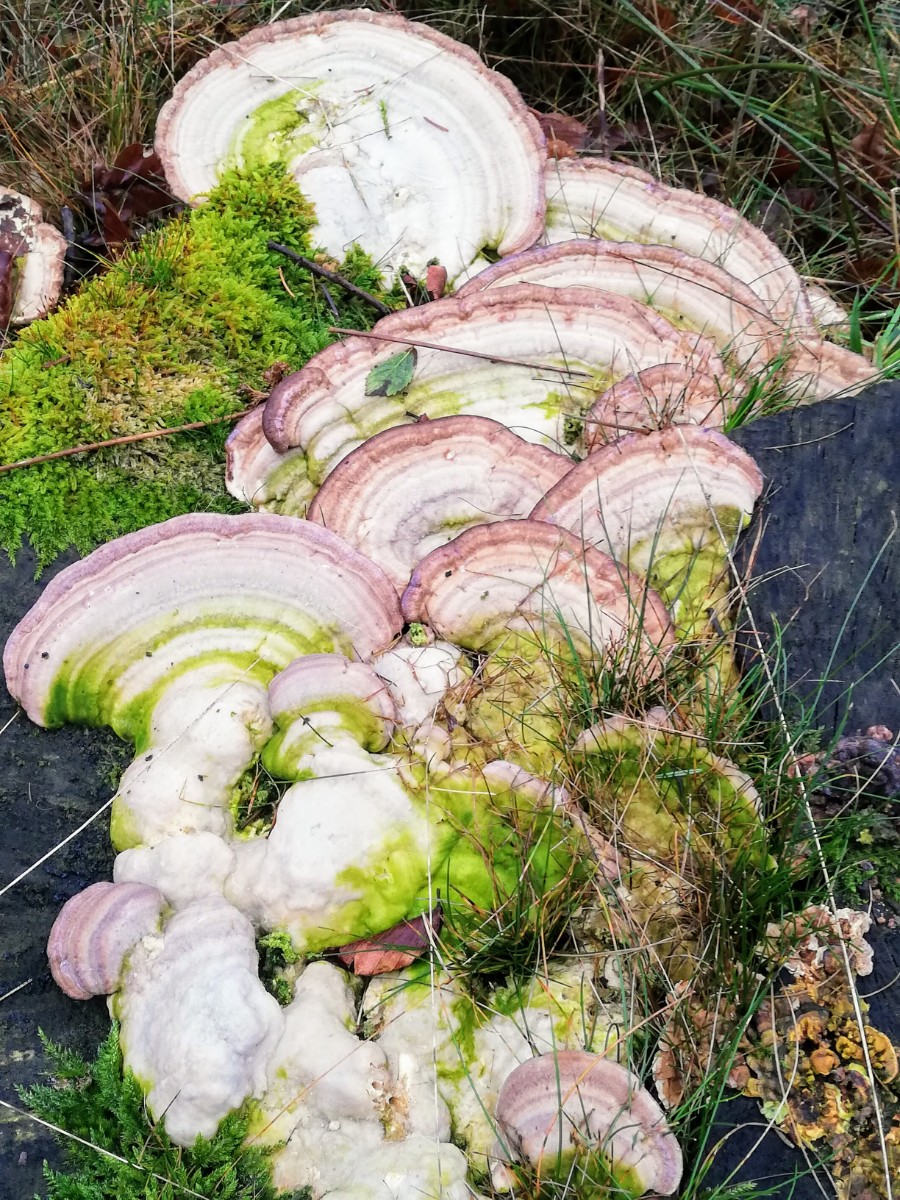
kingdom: Fungi
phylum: Basidiomycota
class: Agaricomycetes
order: Polyporales
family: Polyporaceae
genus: Trametes
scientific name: Trametes gibbosa
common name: puklet læderporesvamp
